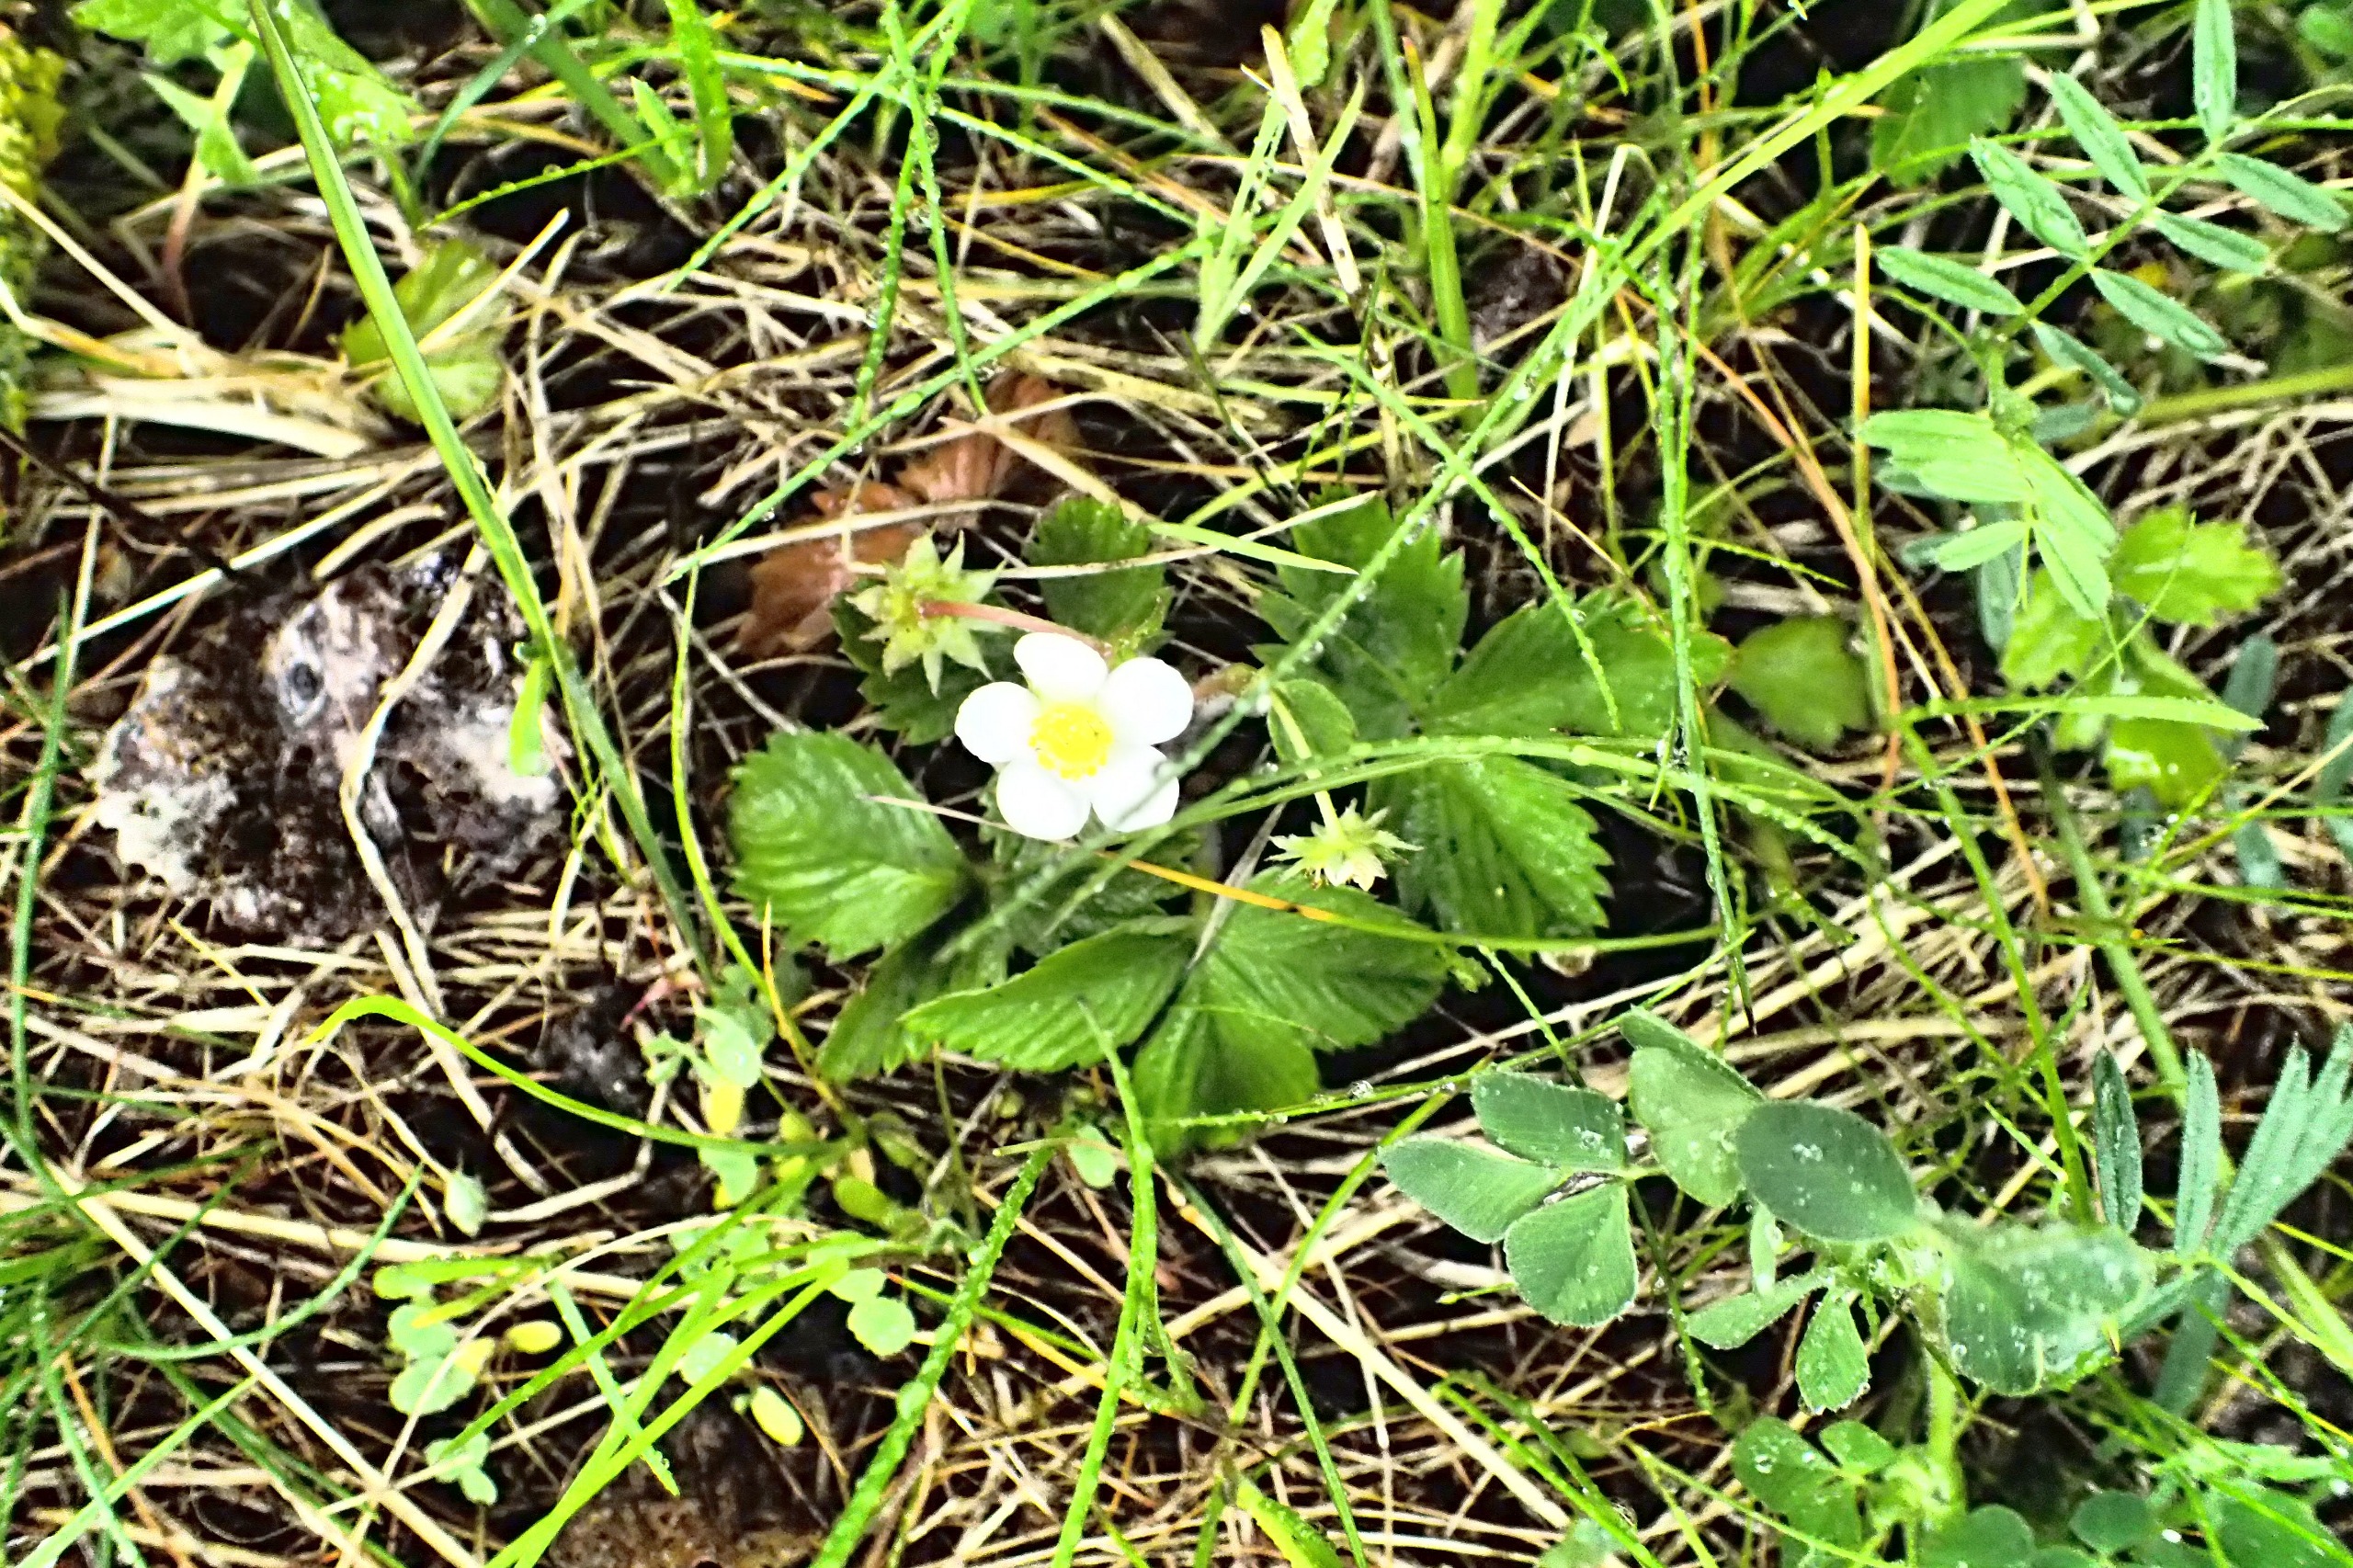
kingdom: Plantae
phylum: Tracheophyta
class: Magnoliopsida
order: Rosales
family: Rosaceae
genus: Fragaria
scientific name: Fragaria vesca
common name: Skov-jordbær
